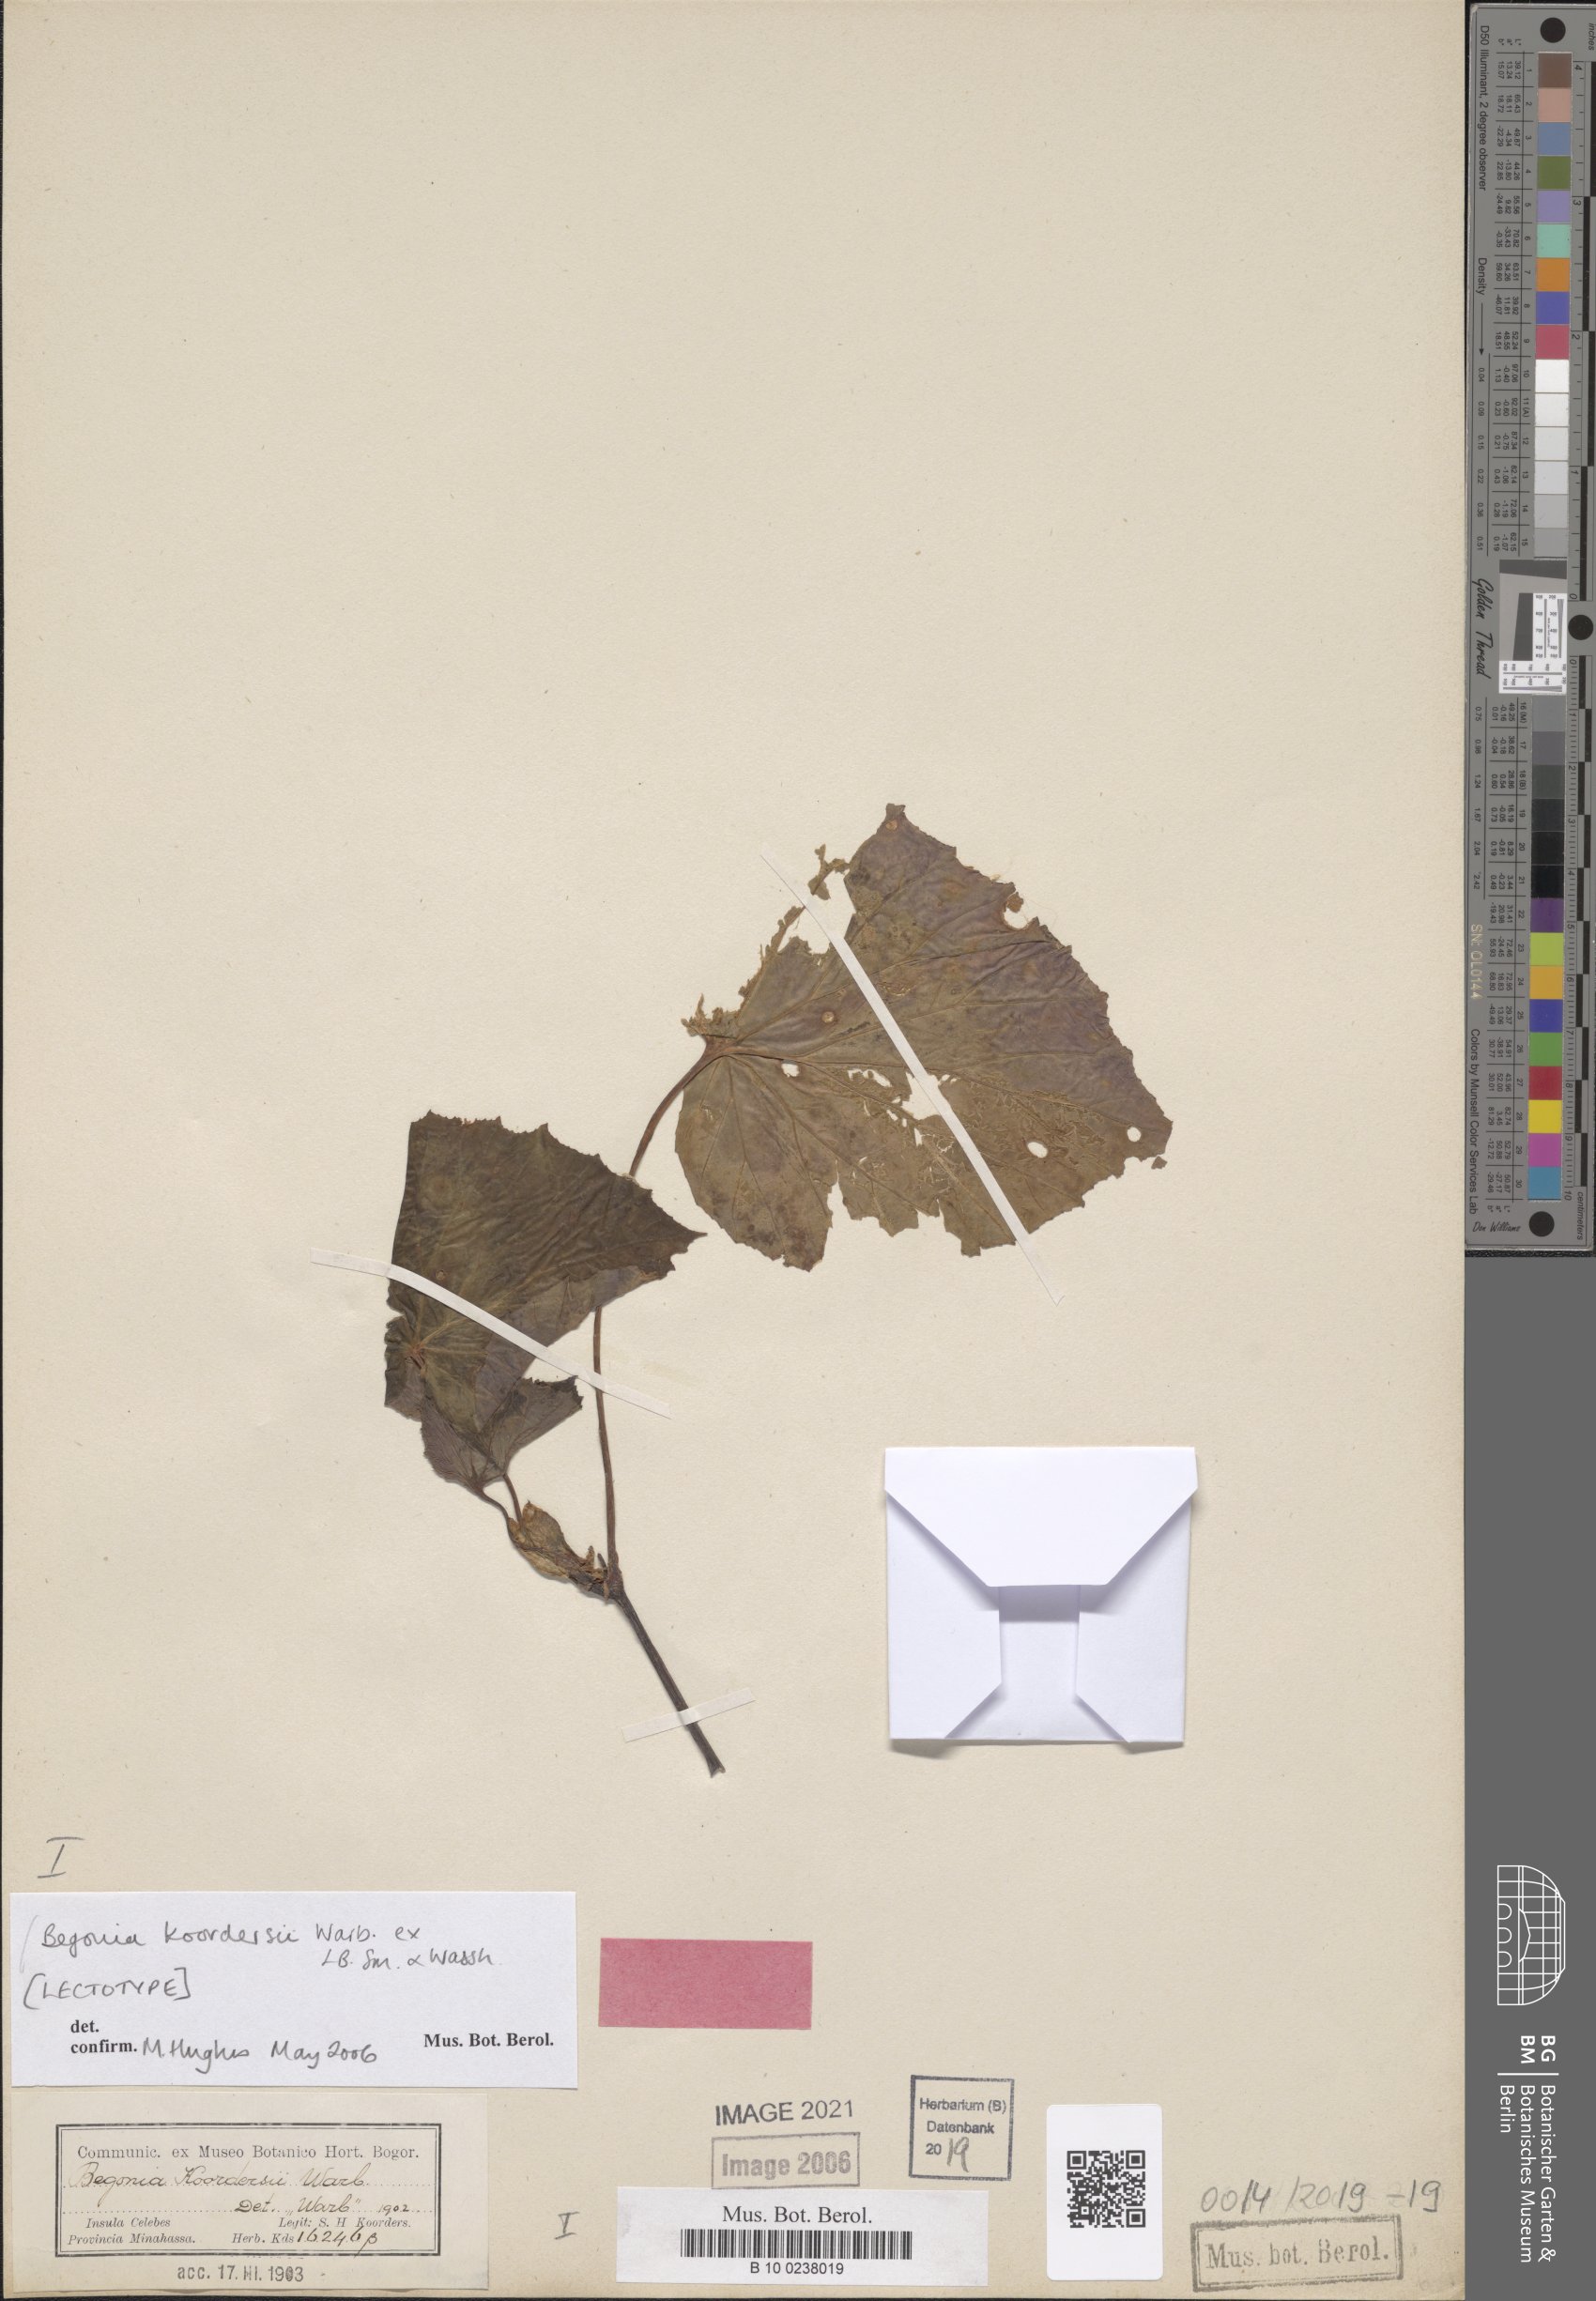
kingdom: Plantae
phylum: Tracheophyta
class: Magnoliopsida
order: Cucurbitales
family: Begoniaceae
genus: Begonia
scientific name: Begonia koordersii
